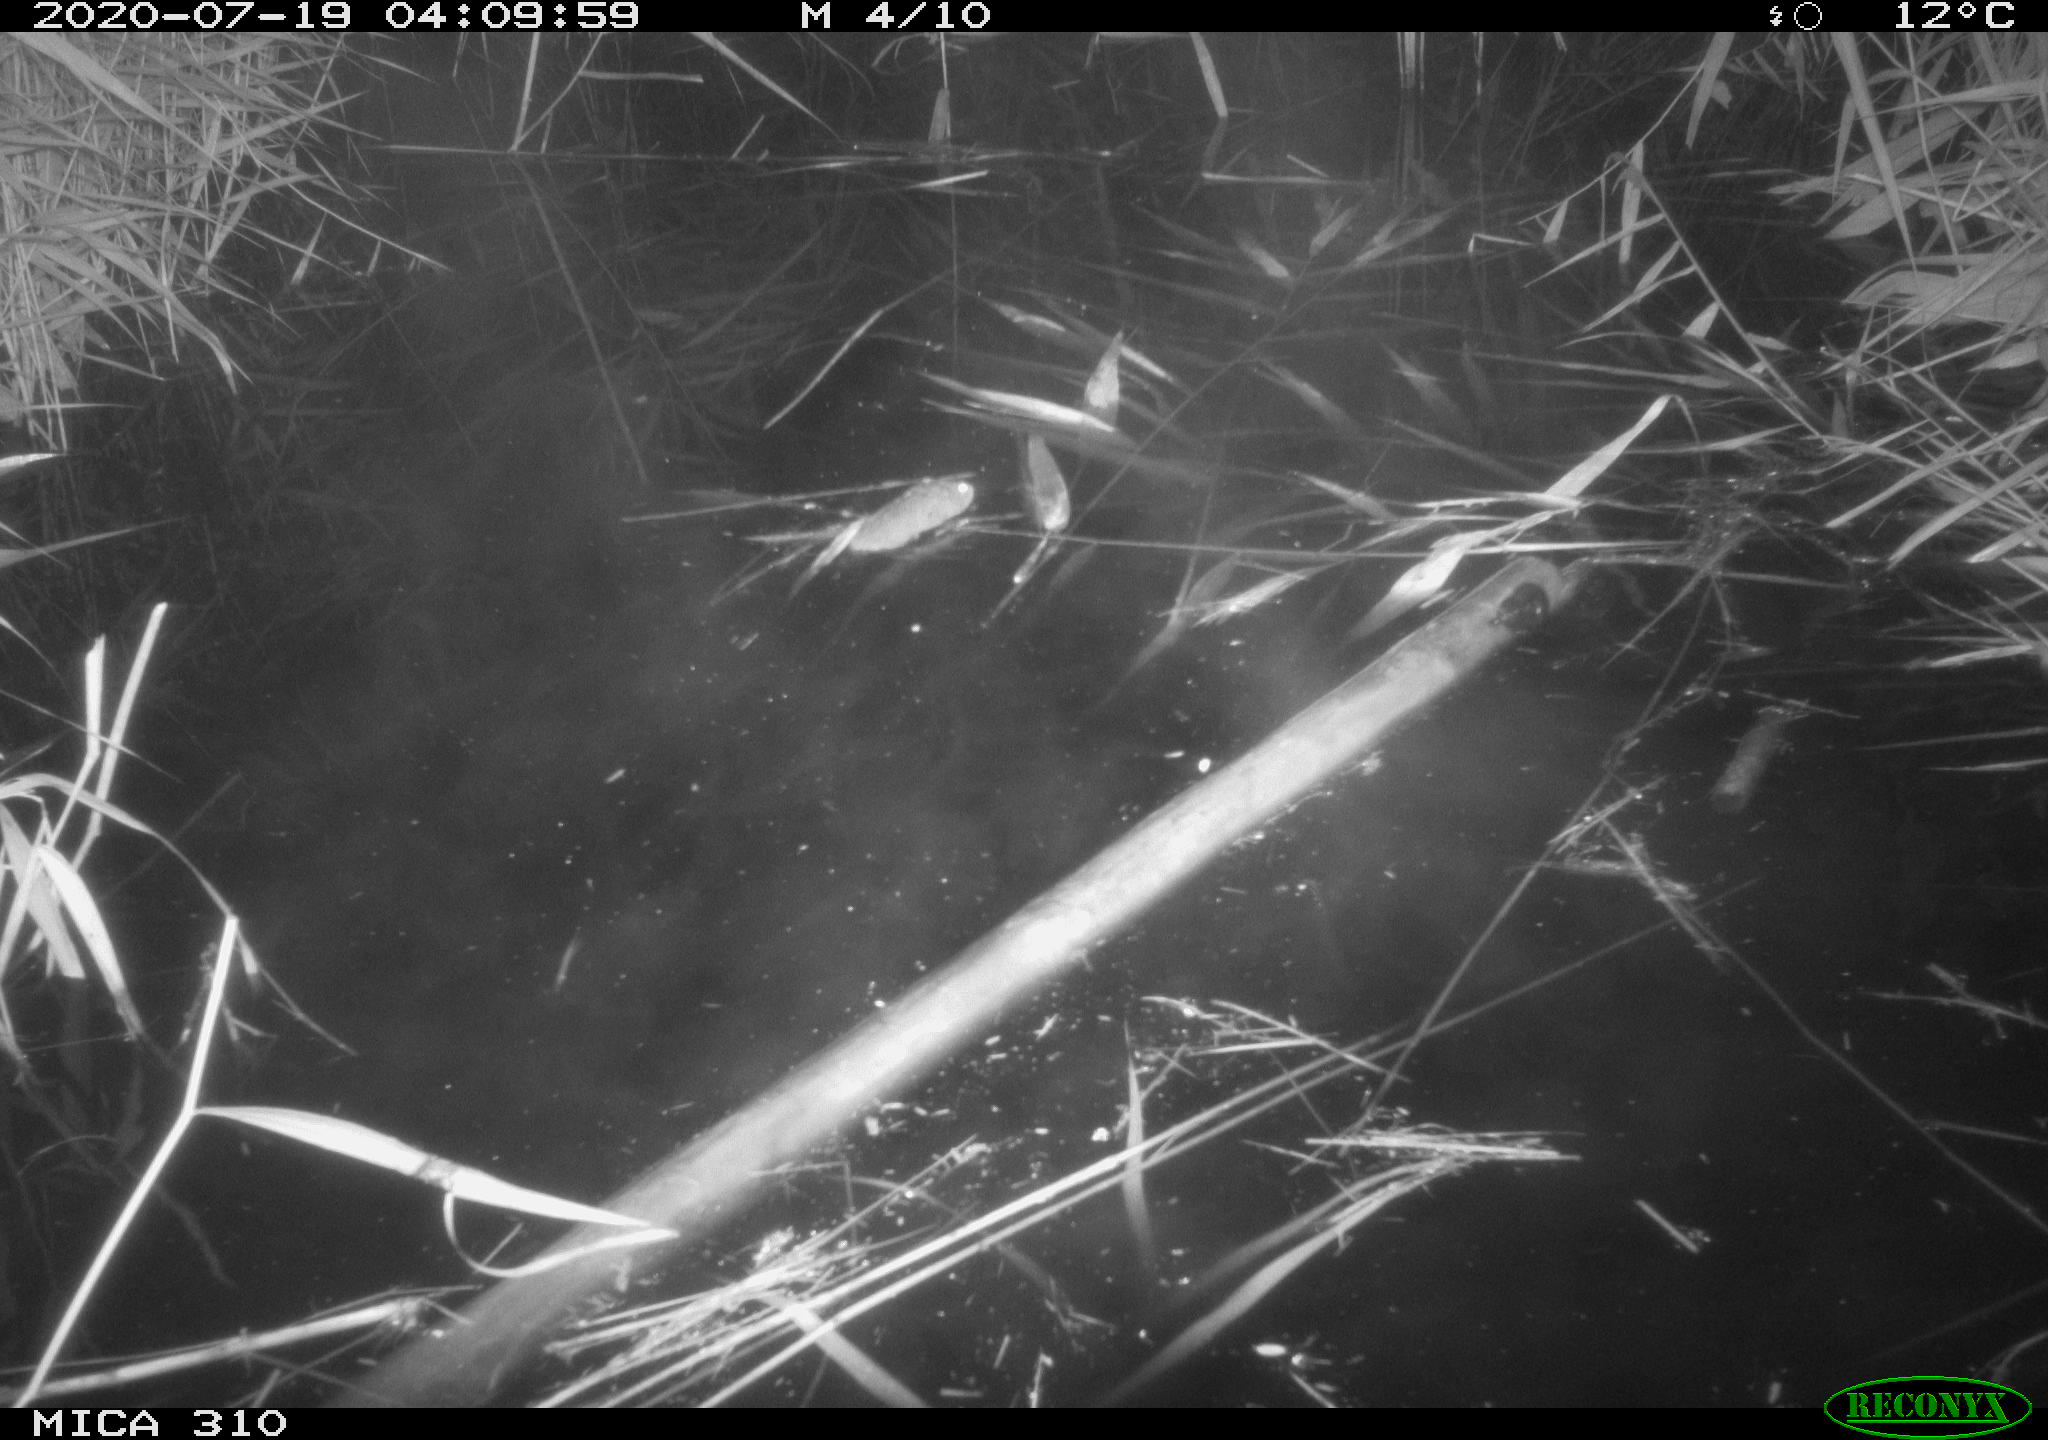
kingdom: Animalia
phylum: Chordata
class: Mammalia
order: Rodentia
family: Muridae
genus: Rattus
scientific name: Rattus norvegicus
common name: Brown rat
